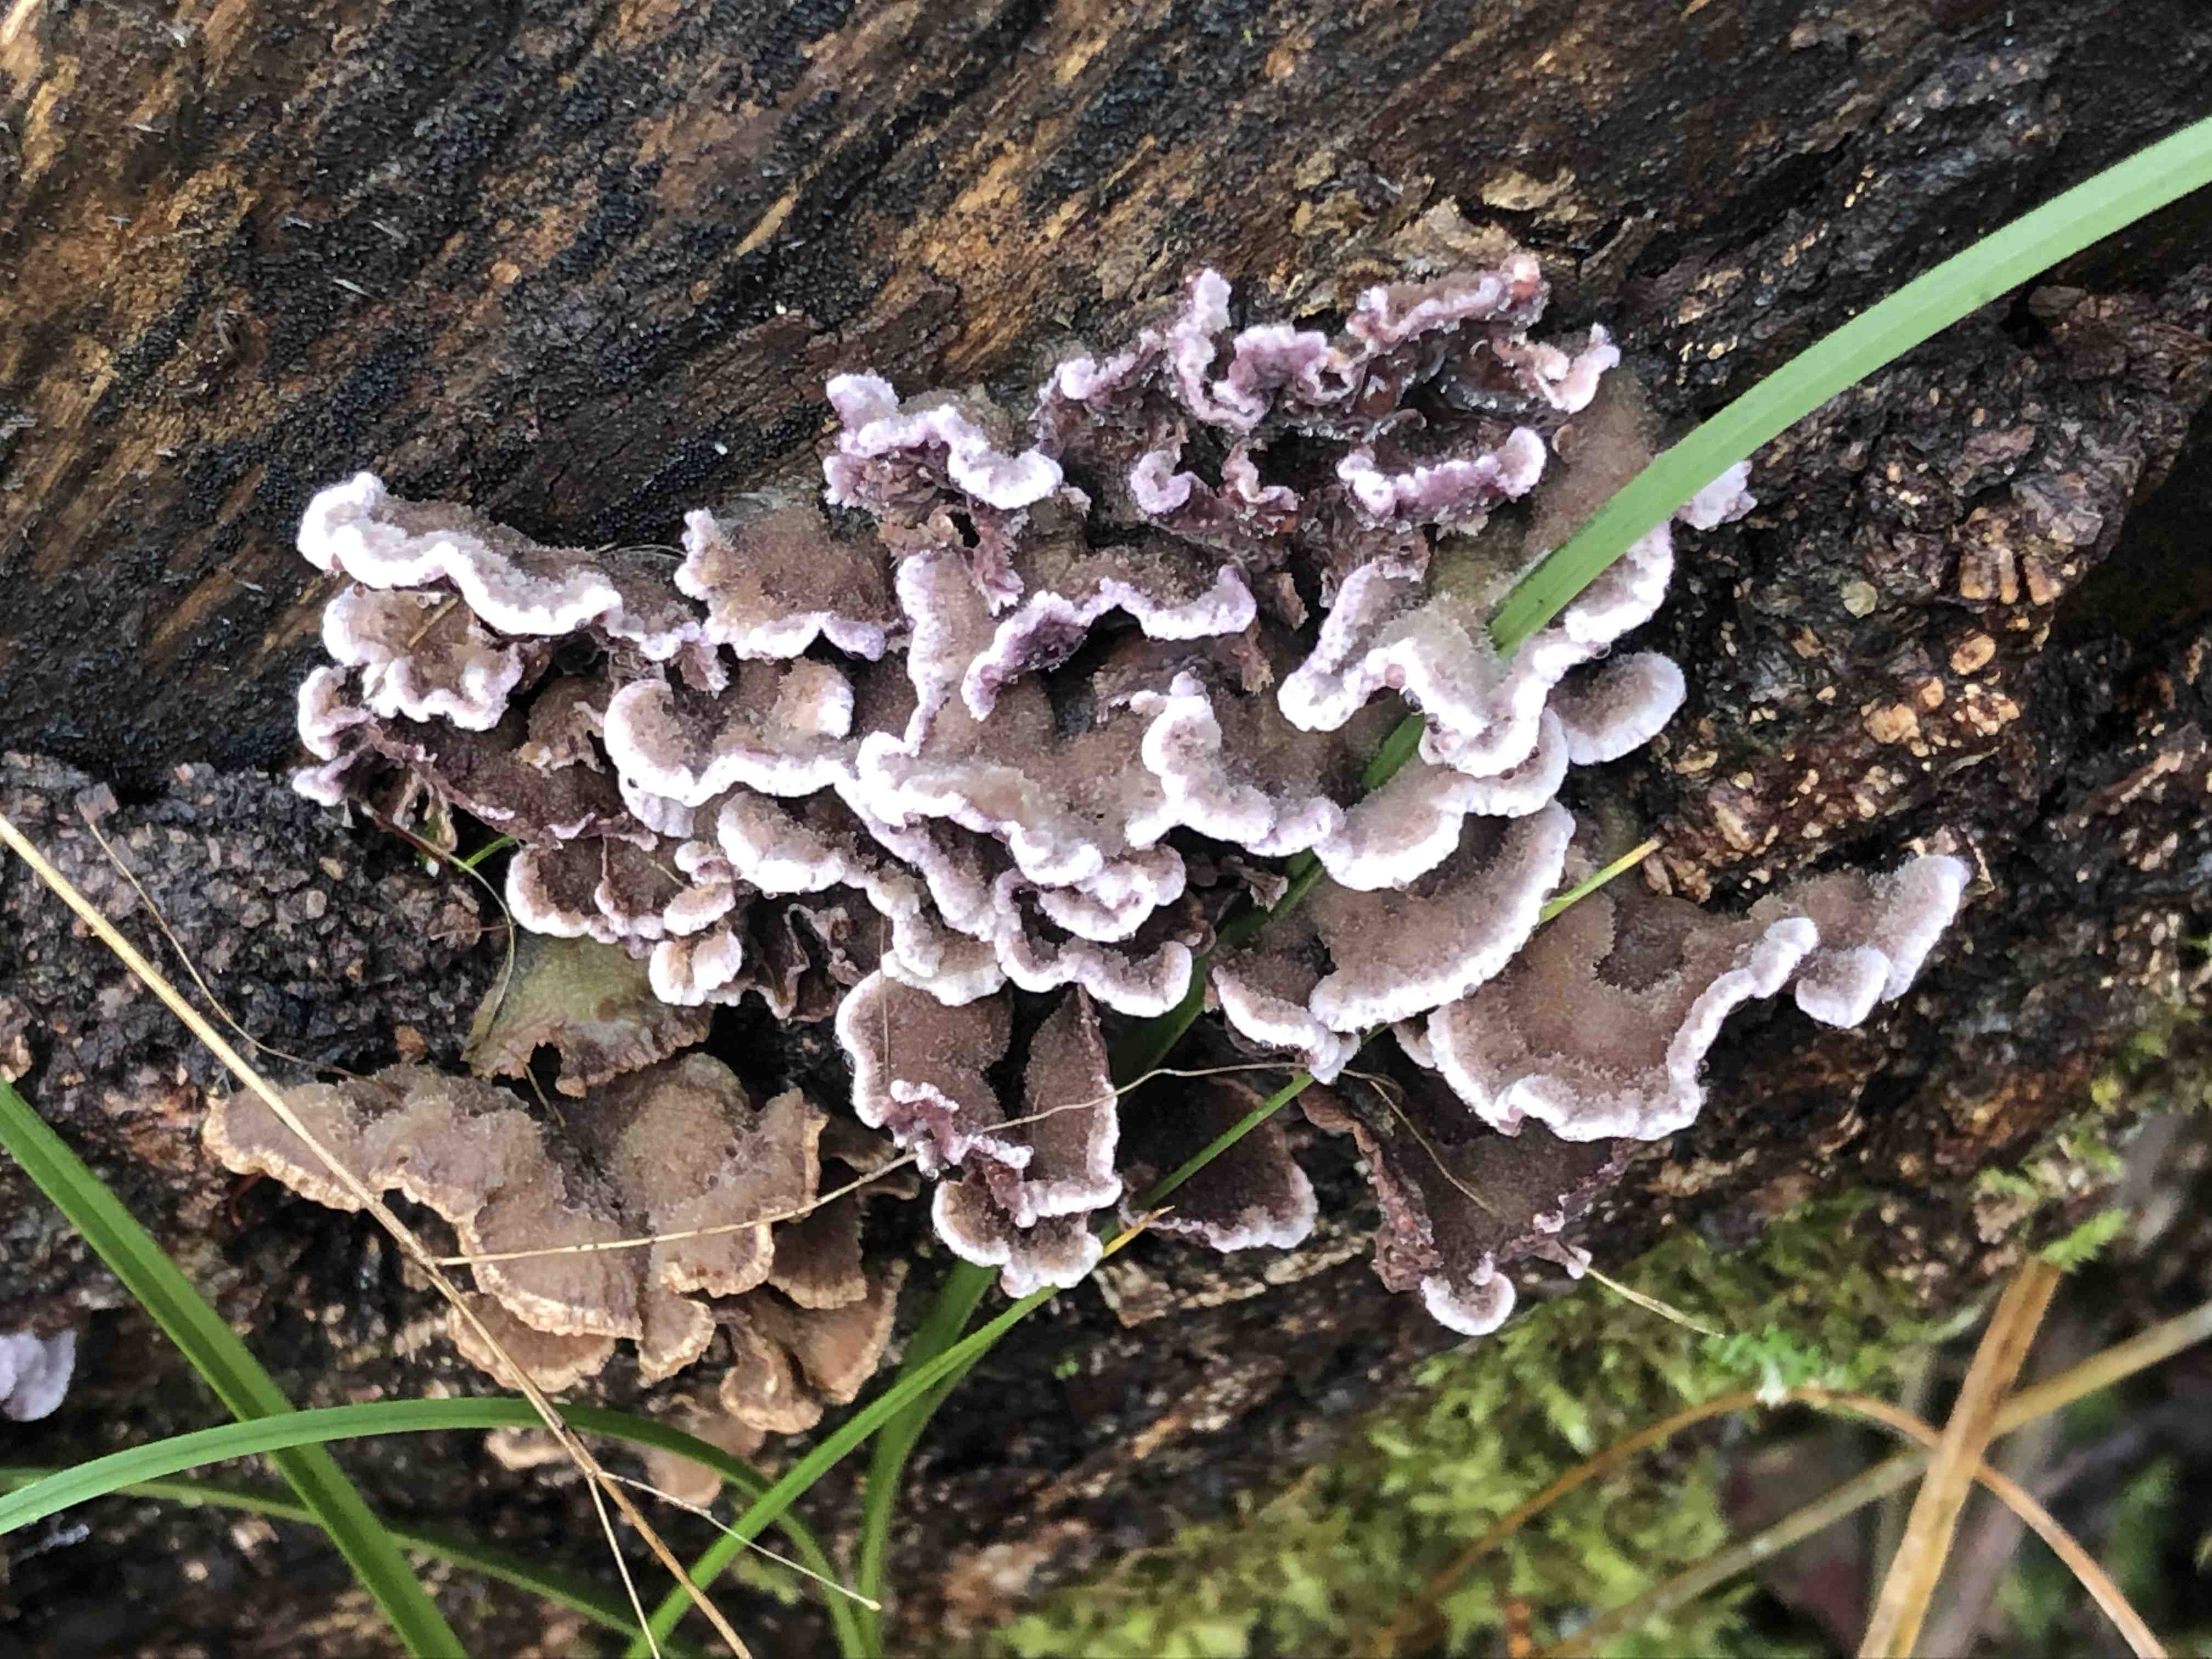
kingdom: Fungi
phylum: Basidiomycota
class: Agaricomycetes
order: Agaricales
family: Cyphellaceae
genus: Chondrostereum
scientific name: Chondrostereum purpureum
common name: purpurlædersvamp
